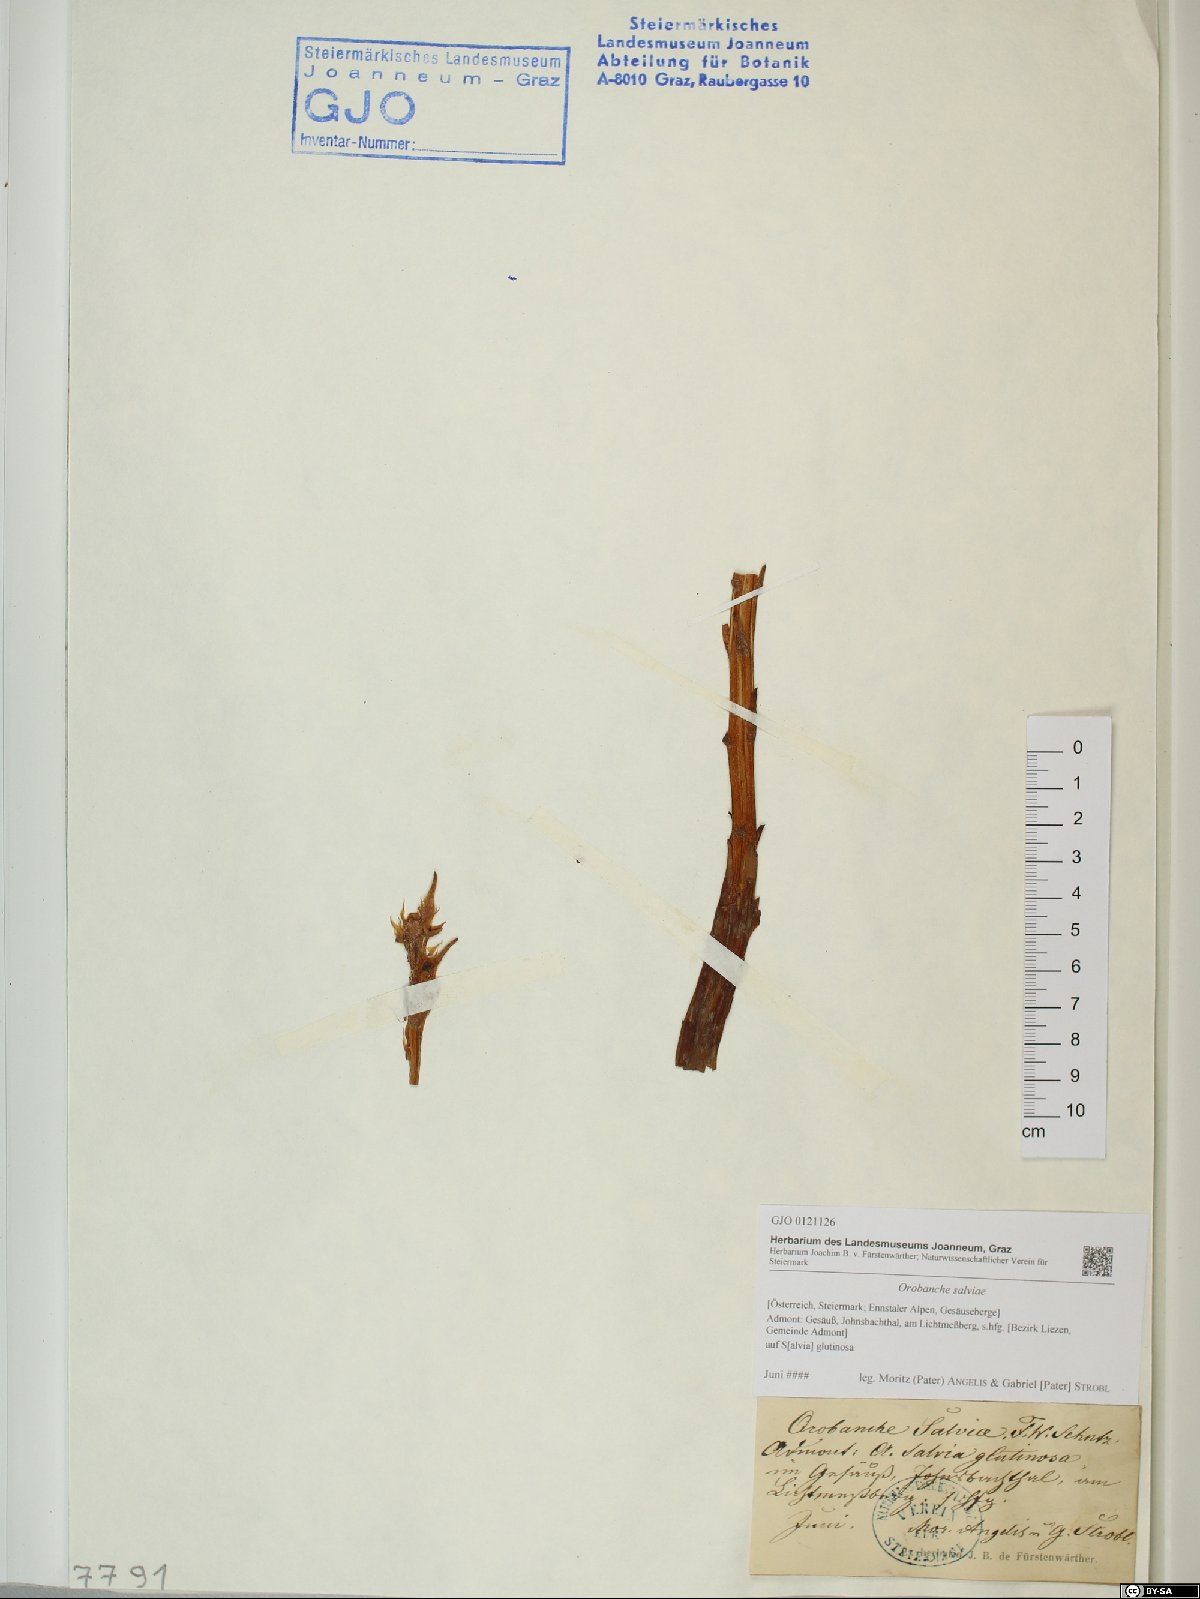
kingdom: Plantae
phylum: Tracheophyta
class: Magnoliopsida
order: Lamiales
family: Orobanchaceae
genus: Orobanche
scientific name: Orobanche salviae
